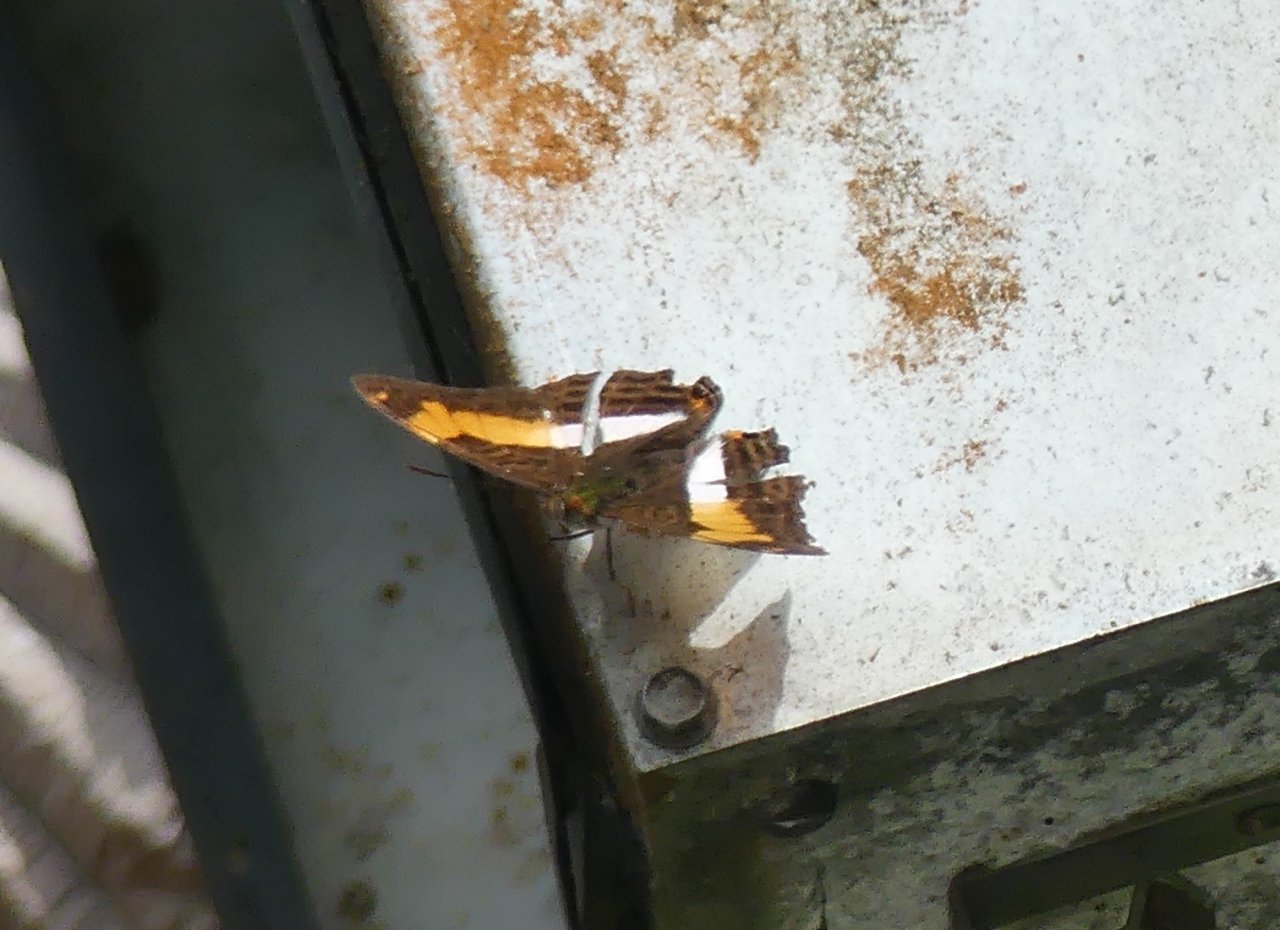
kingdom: Animalia
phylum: Arthropoda
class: Insecta
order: Lepidoptera
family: Nymphalidae
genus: Limenitis
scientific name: Limenitis malea
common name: Heraclea Sister
